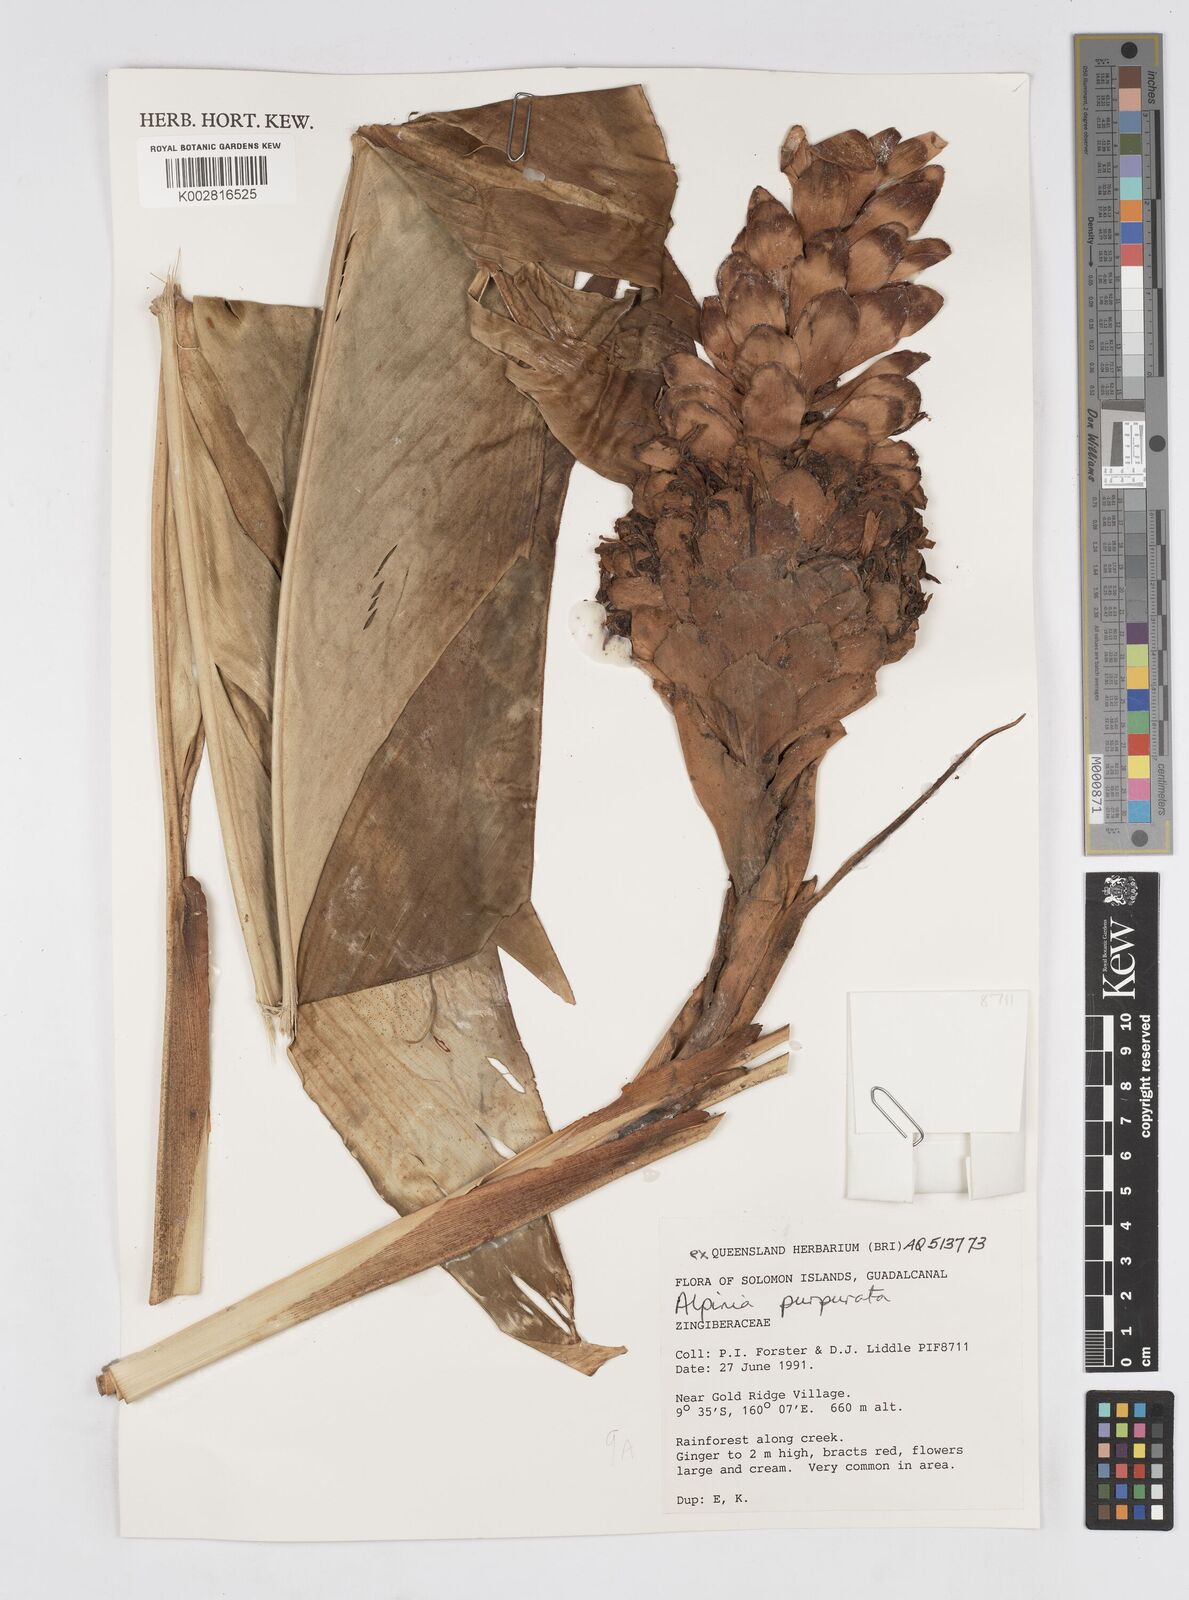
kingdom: Plantae
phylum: Tracheophyta
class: Liliopsida
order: Zingiberales
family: Zingiberaceae
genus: Alpinia
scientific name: Alpinia purpurata
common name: Red ginger
